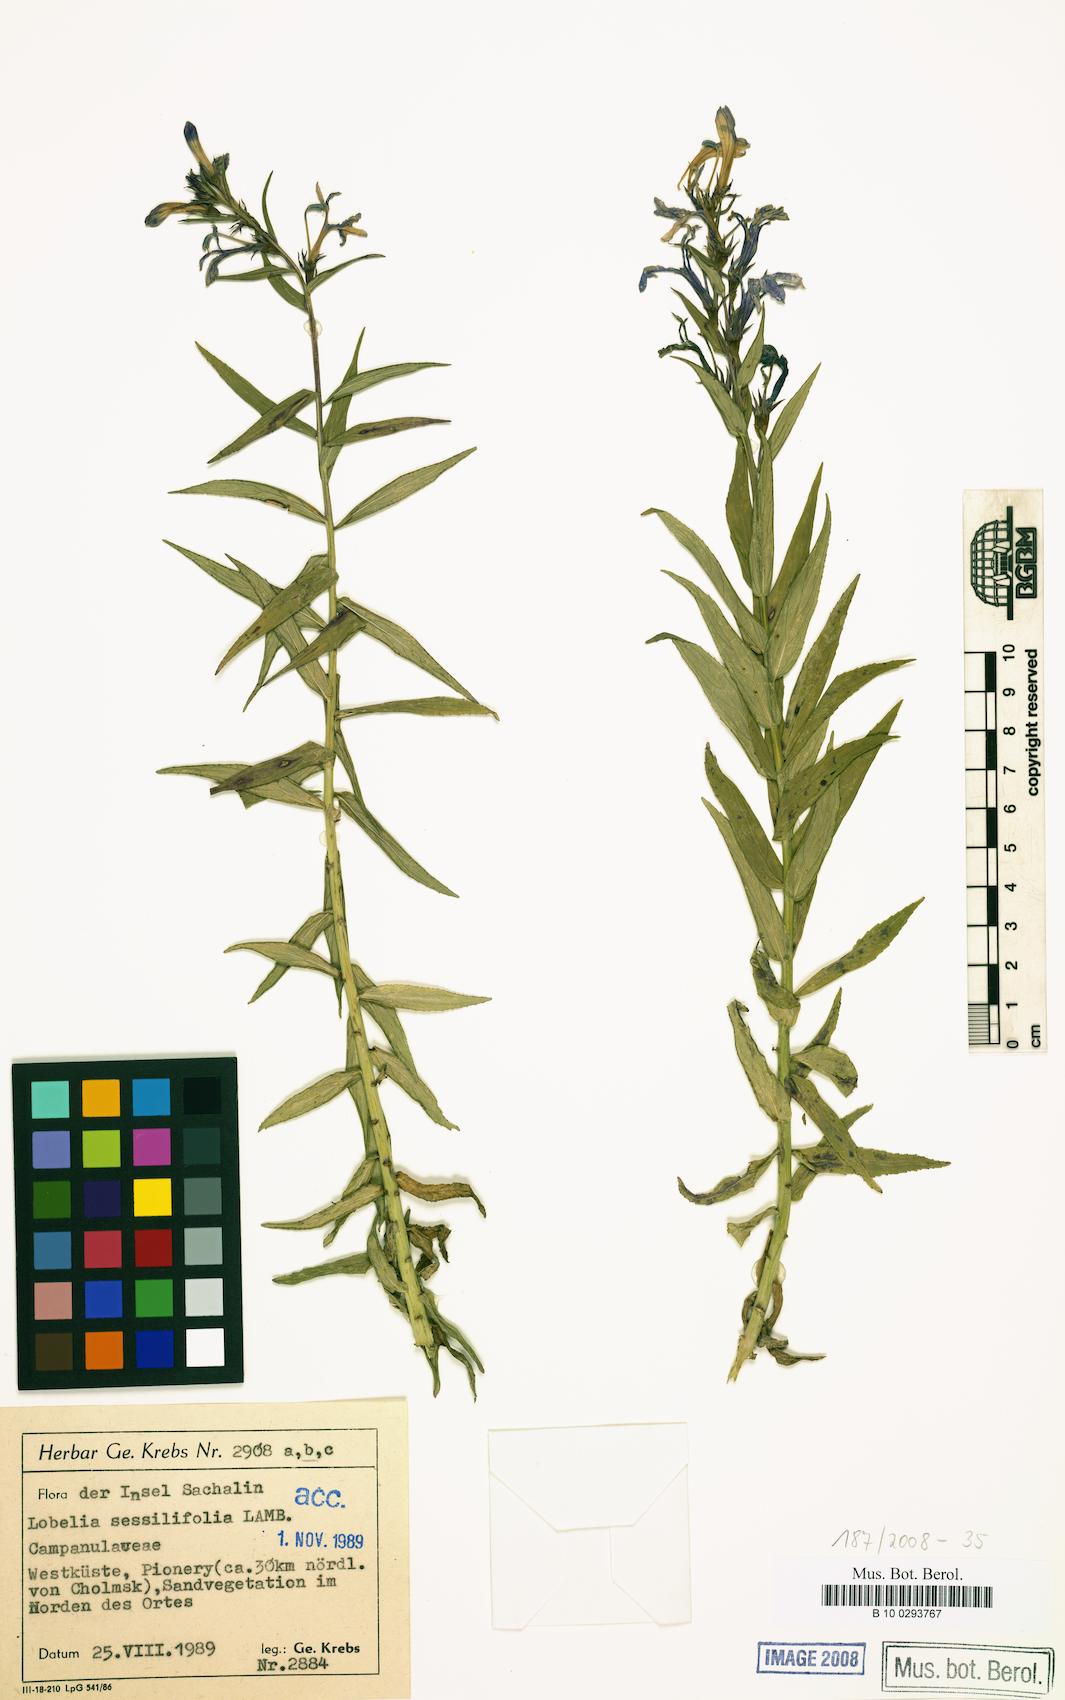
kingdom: Plantae
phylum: Tracheophyta
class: Magnoliopsida
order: Asterales
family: Campanulaceae
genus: Lobelia
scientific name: Lobelia sessilifolia
